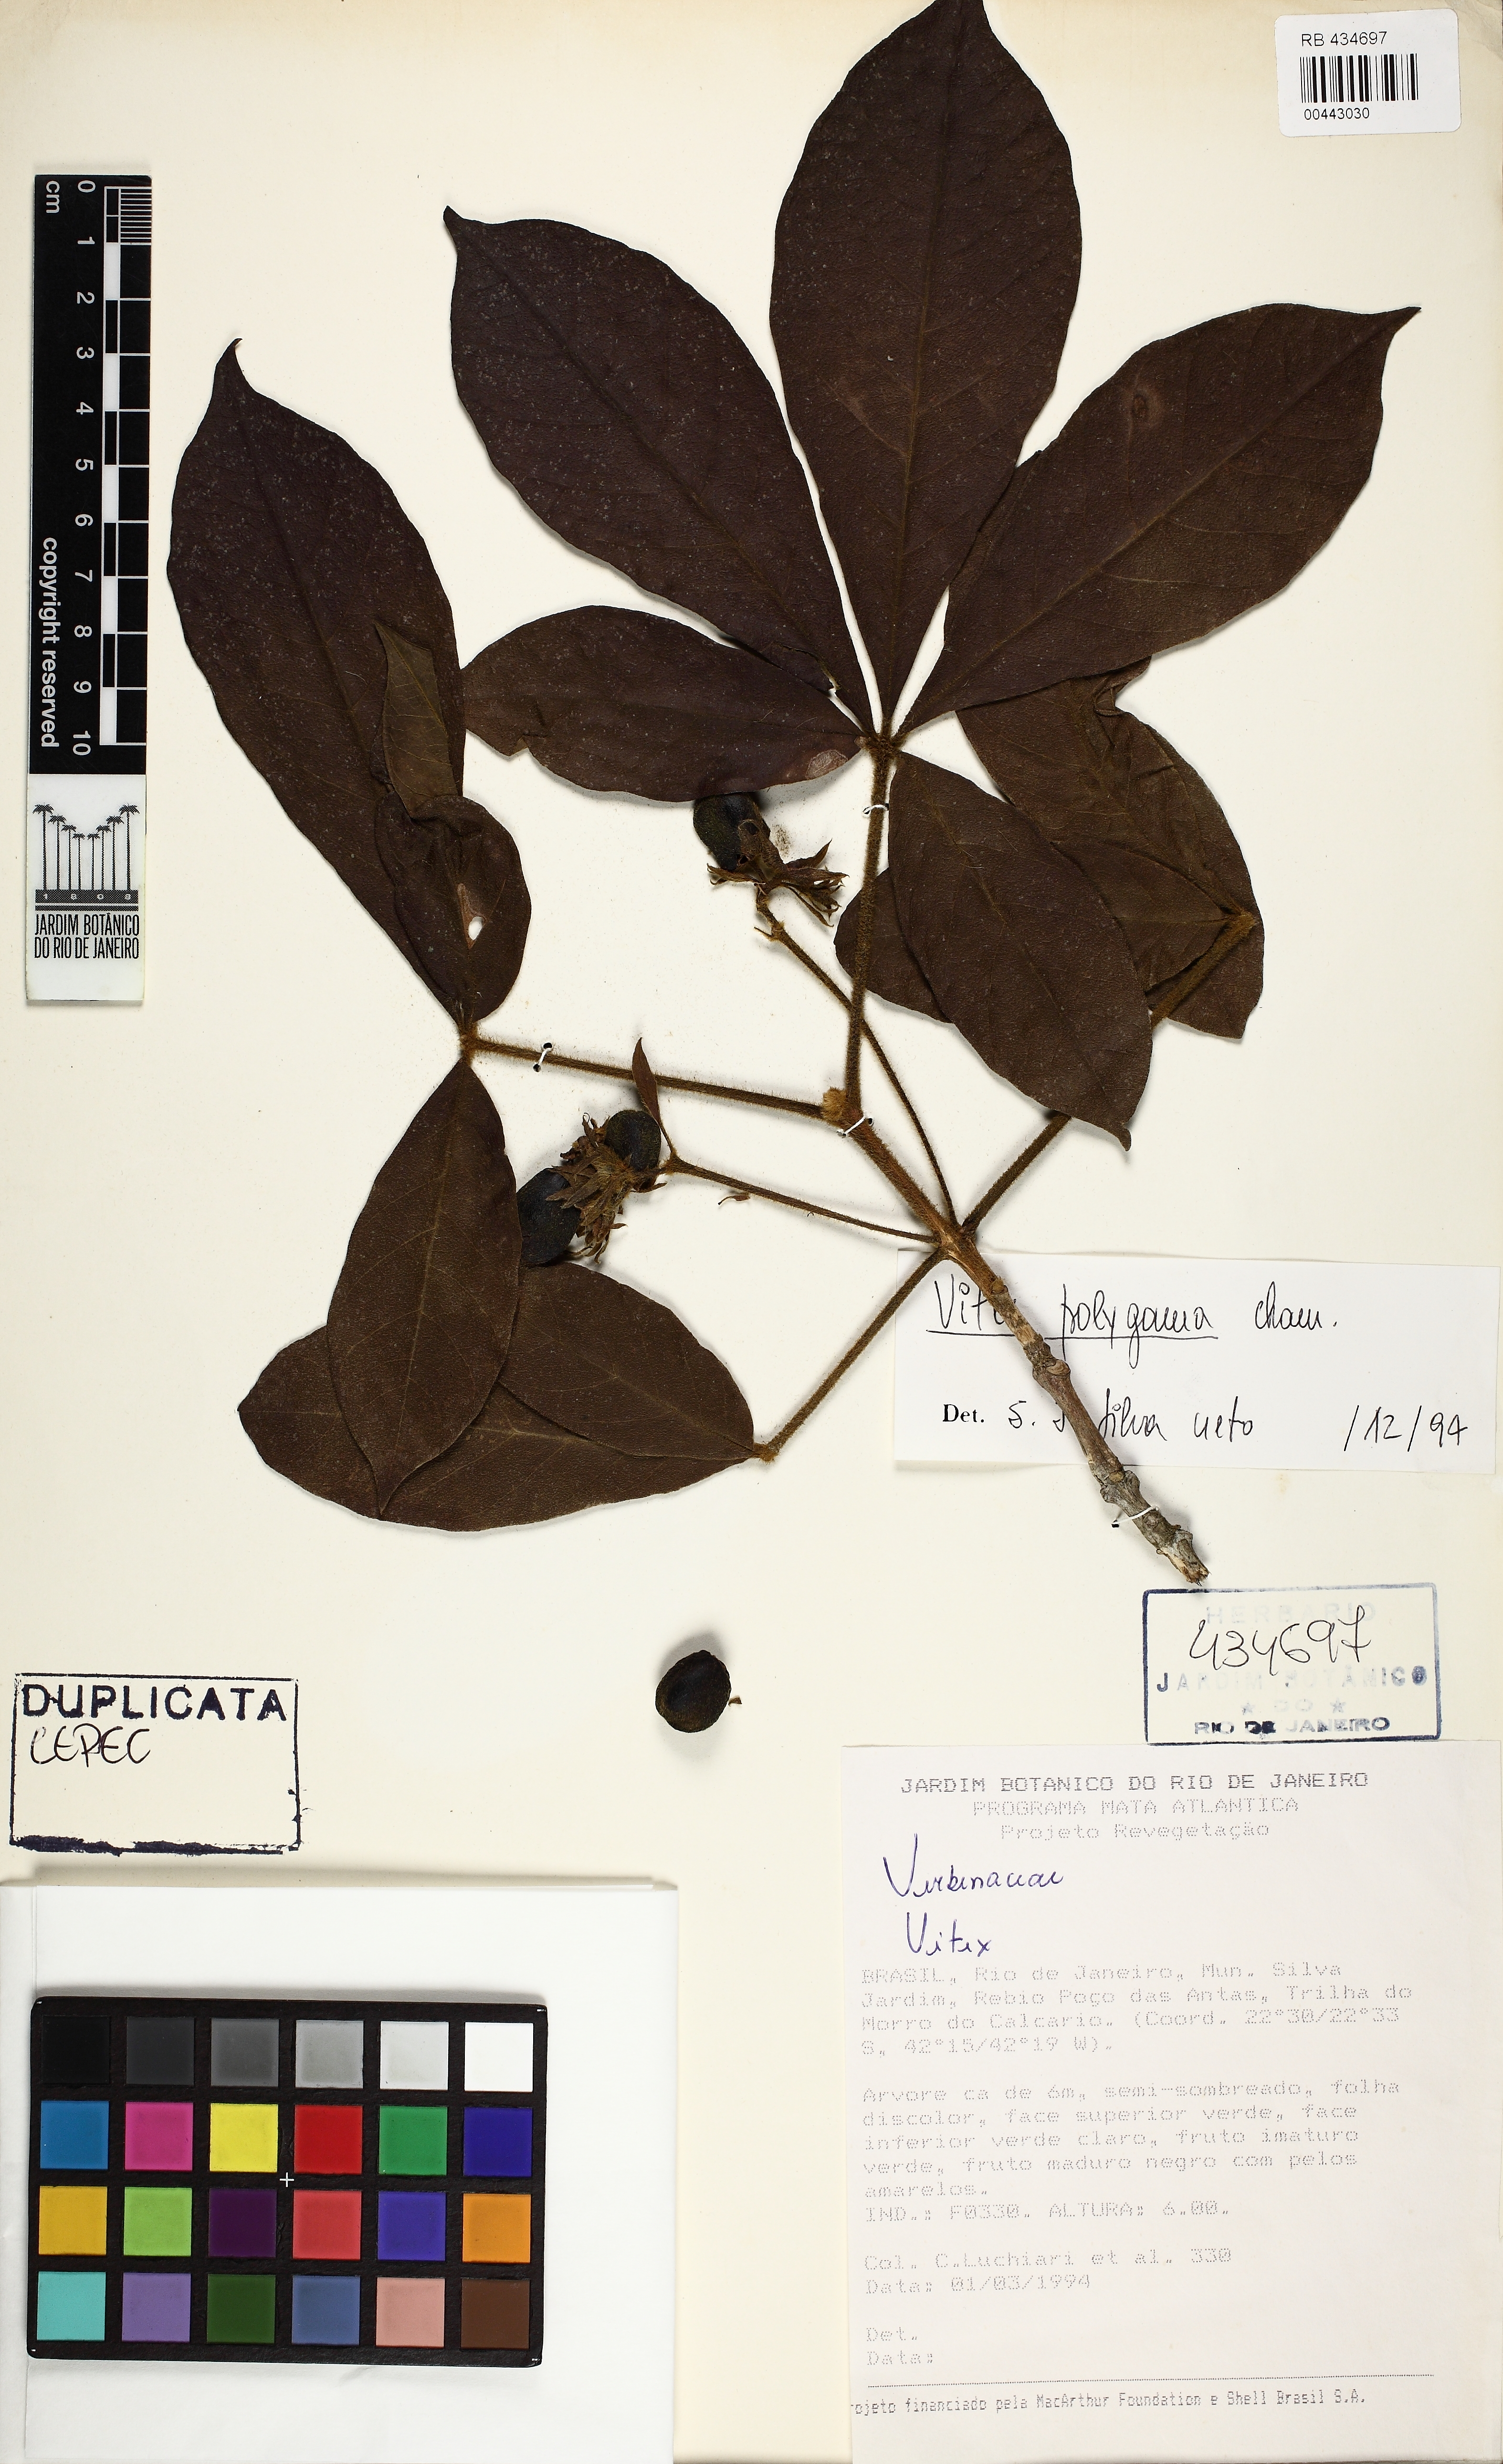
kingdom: Plantae
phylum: Tracheophyta
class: Magnoliopsida
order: Lamiales
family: Lamiaceae
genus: Vitex
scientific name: Vitex polygama
